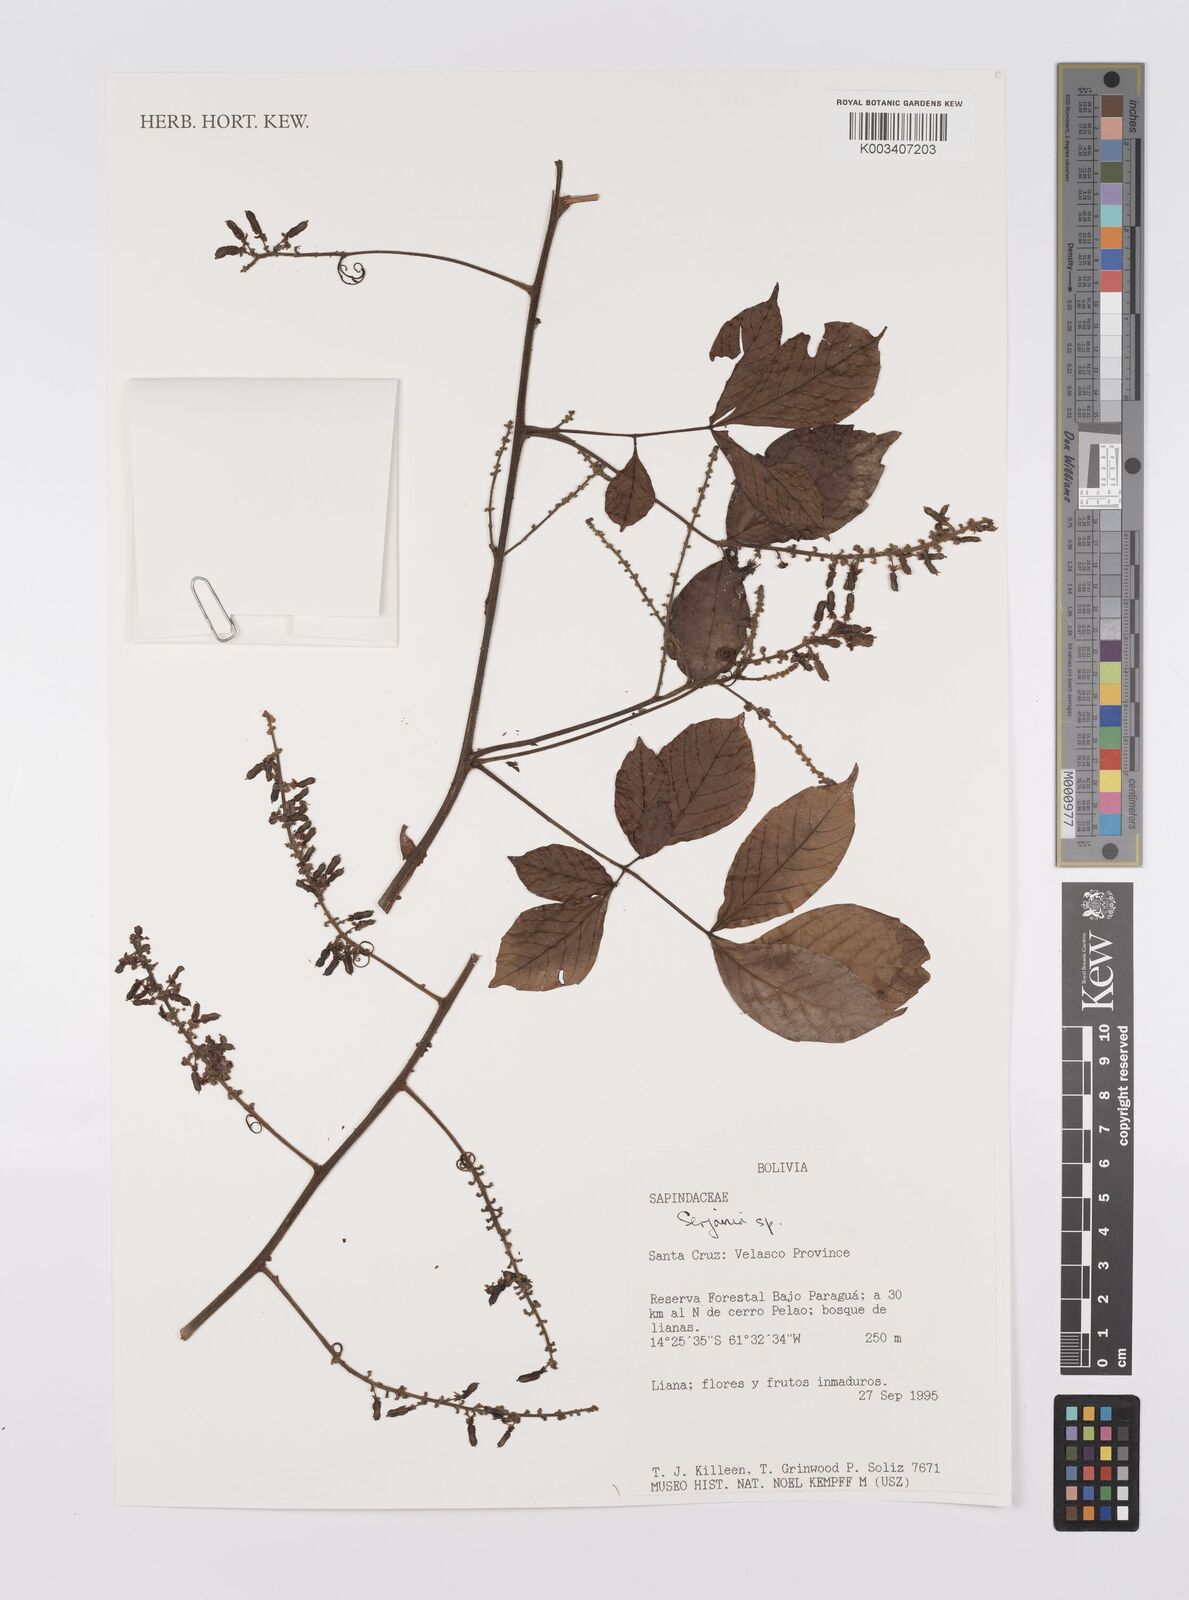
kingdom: Plantae
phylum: Tracheophyta
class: Magnoliopsida
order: Sapindales
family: Sapindaceae
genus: Serjania
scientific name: Serjania
